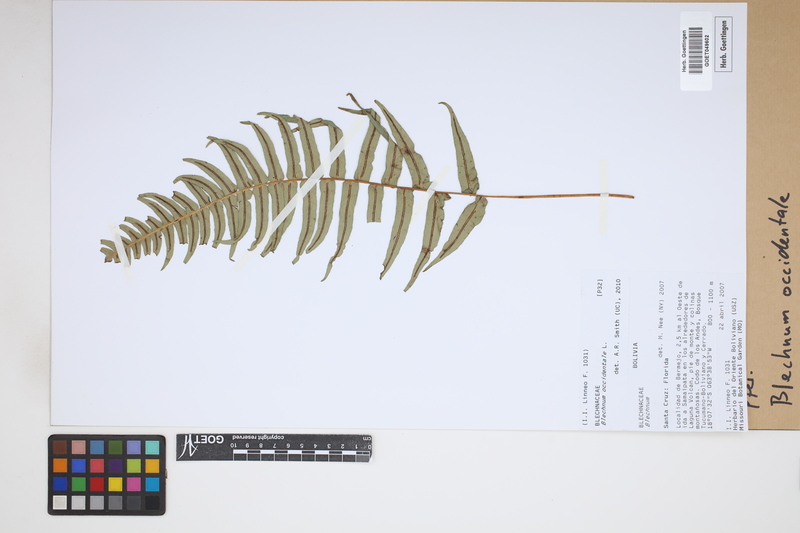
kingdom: Plantae
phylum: Tracheophyta
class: Polypodiopsida
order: Polypodiales
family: Blechnaceae
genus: Blechnum
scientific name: Blechnum occidentale
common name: Hammock fern
